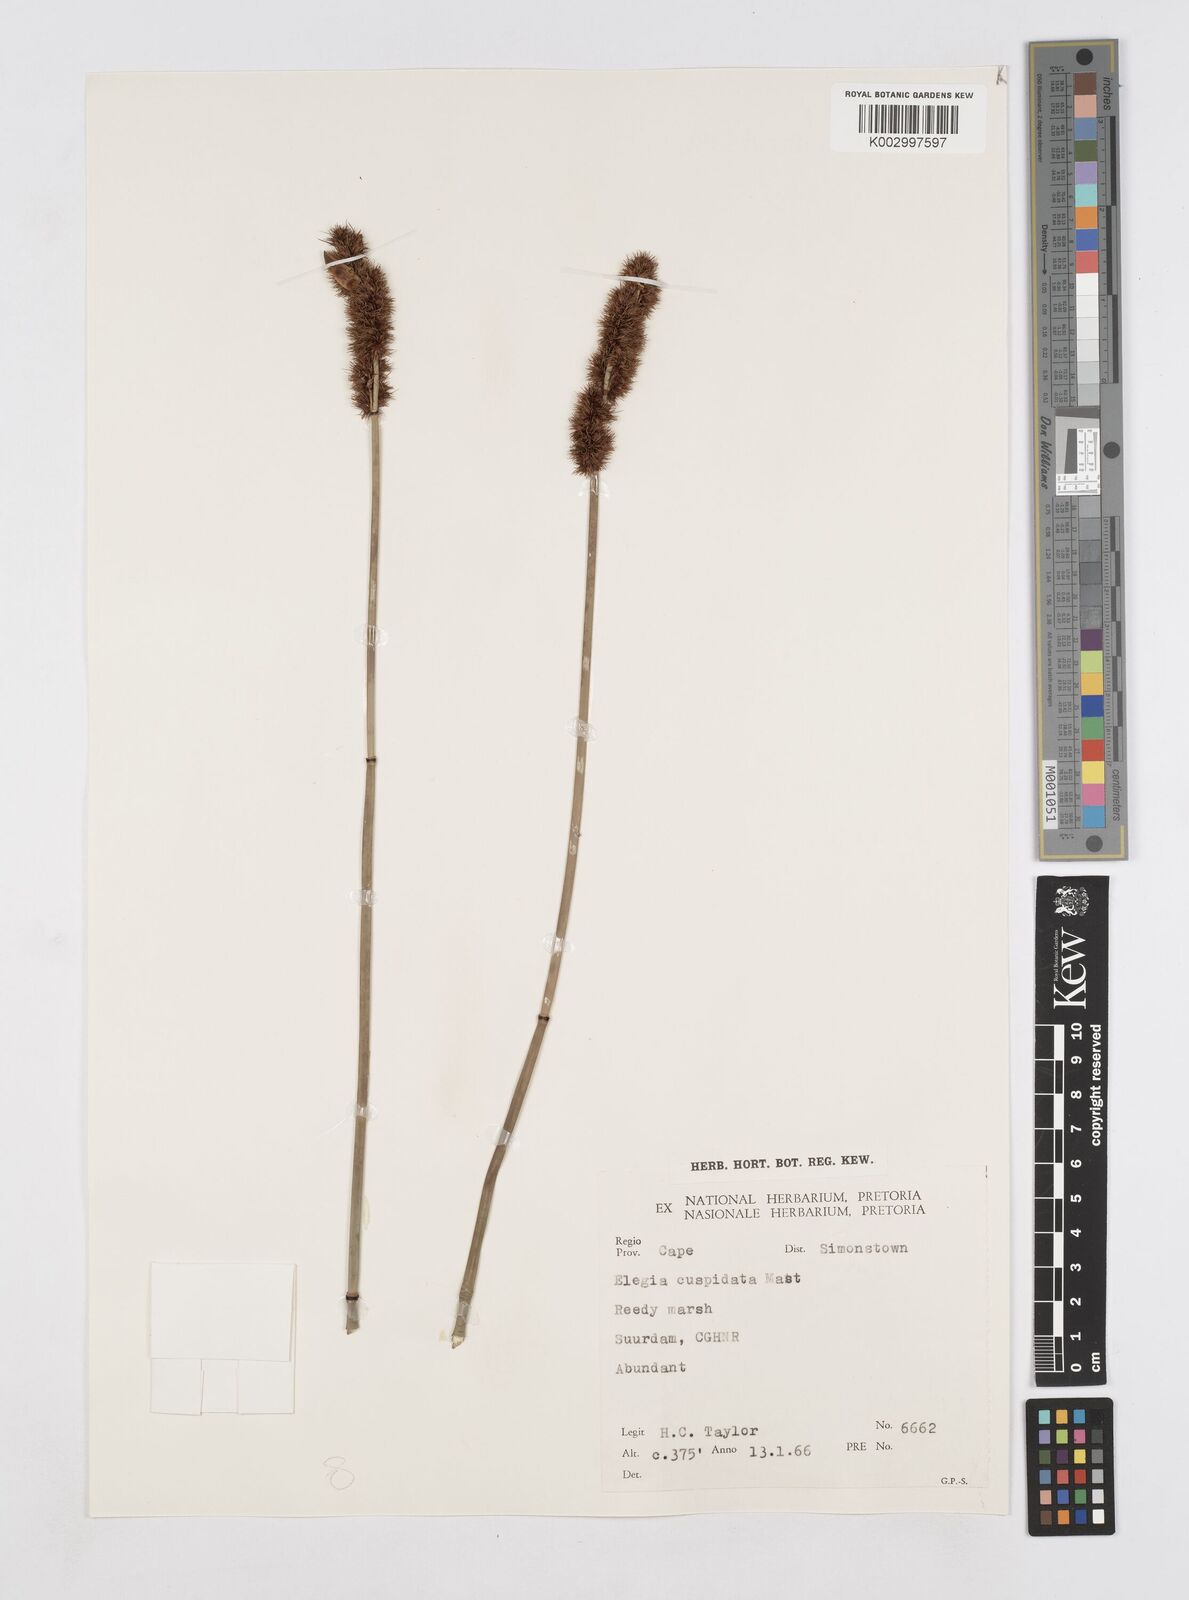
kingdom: Plantae
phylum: Tracheophyta
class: Liliopsida
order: Poales
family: Restionaceae
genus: Elegia
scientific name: Elegia cuspidata
